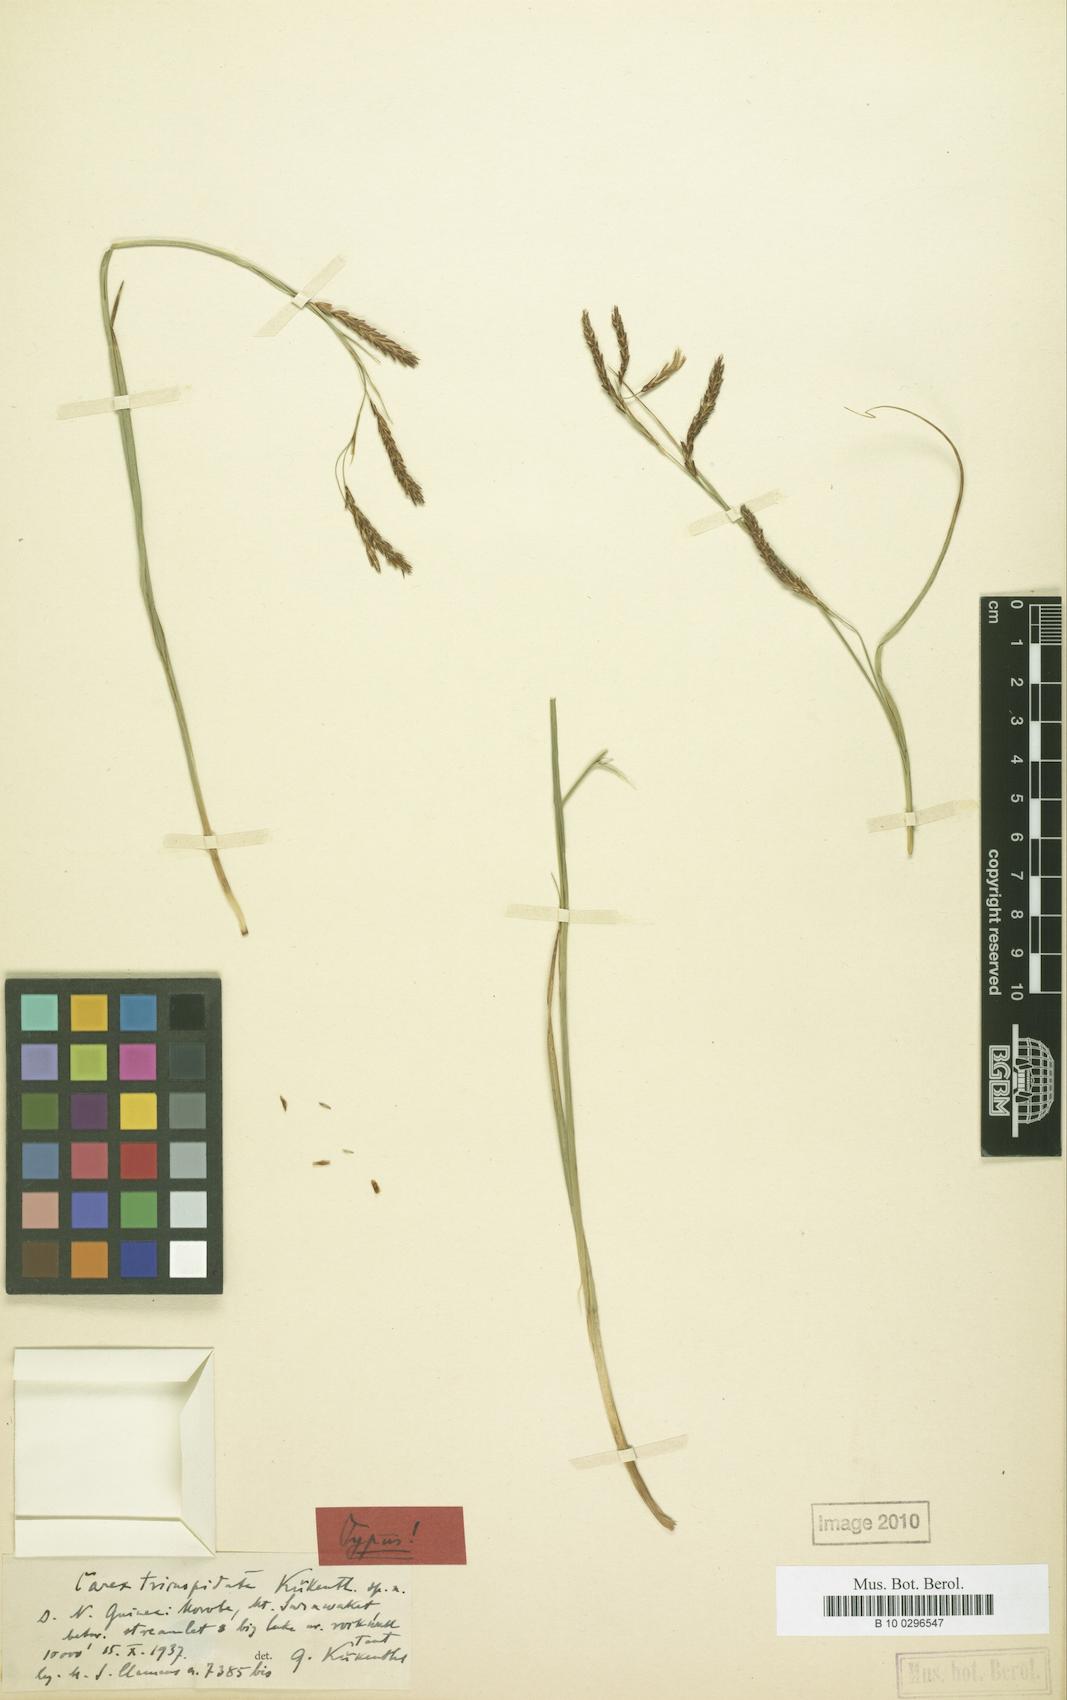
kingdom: Plantae
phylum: Tracheophyta
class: Liliopsida
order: Poales
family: Cyperaceae
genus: Carex
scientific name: Carex brachyanthera
